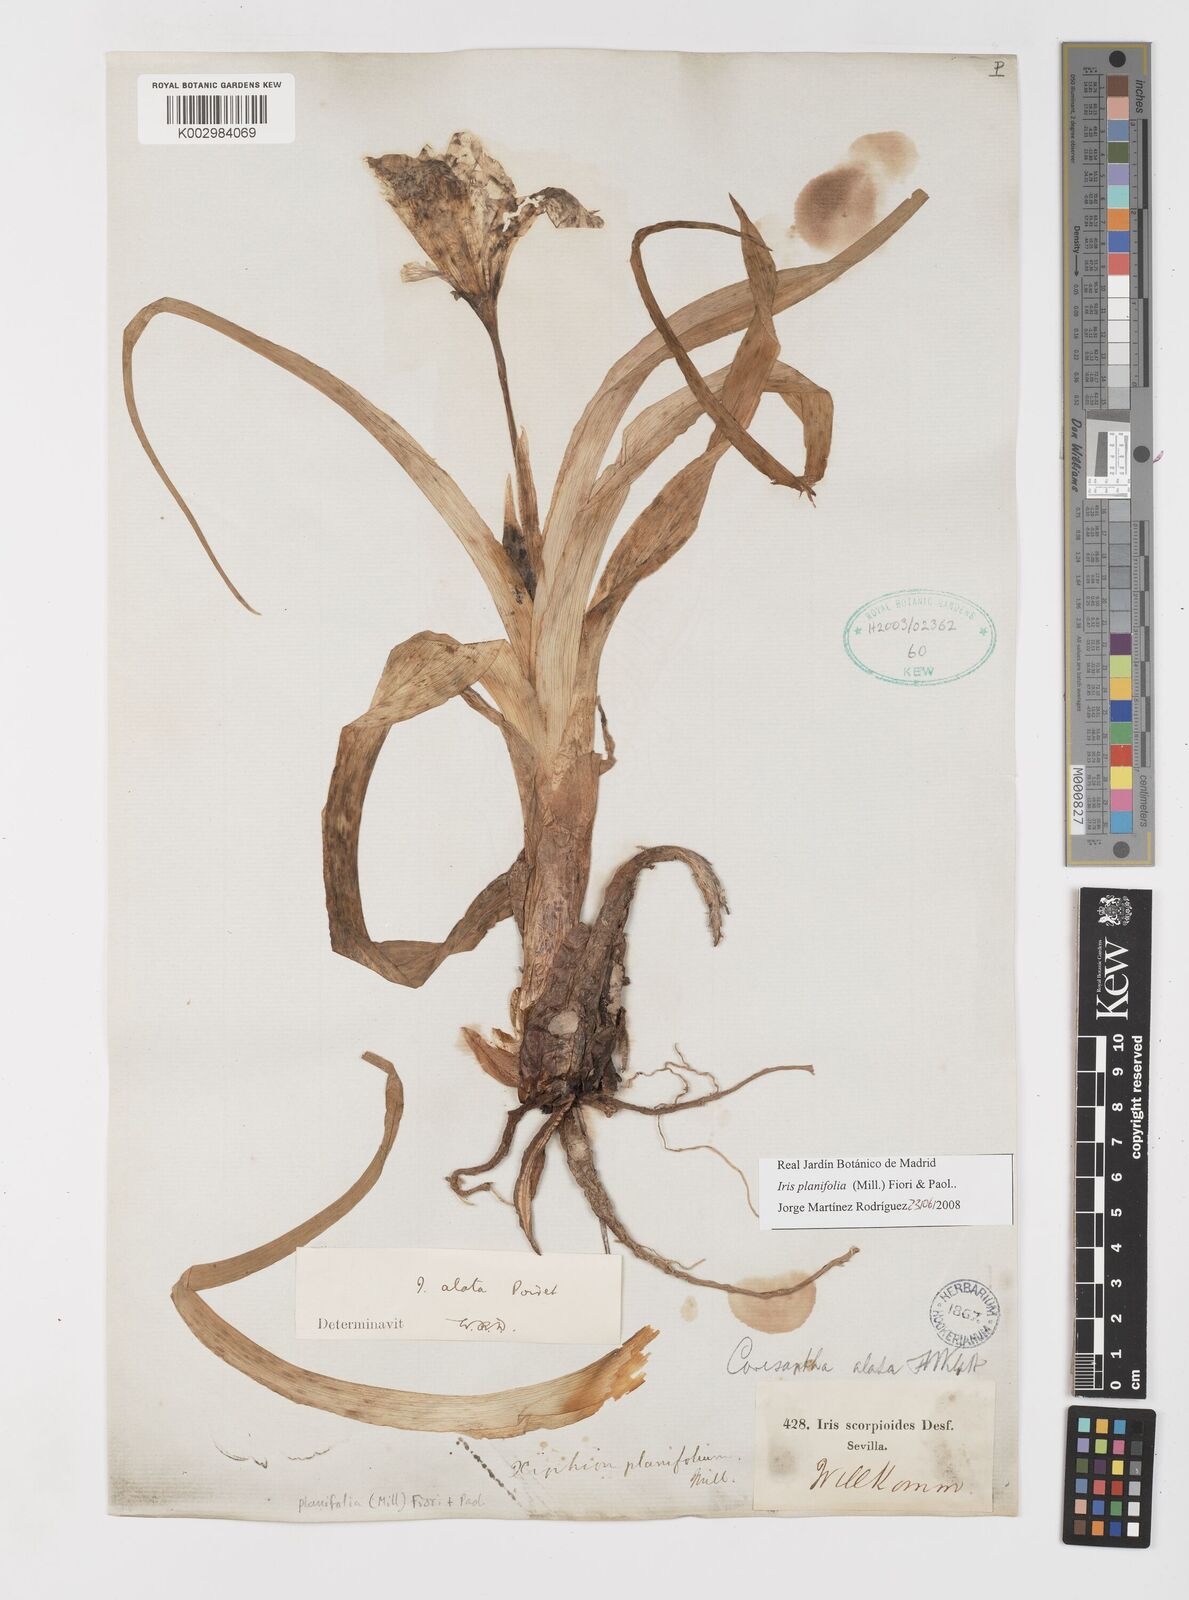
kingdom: Plantae
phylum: Tracheophyta
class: Liliopsida
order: Asparagales
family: Iridaceae
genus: Iris
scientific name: Iris planifolia
